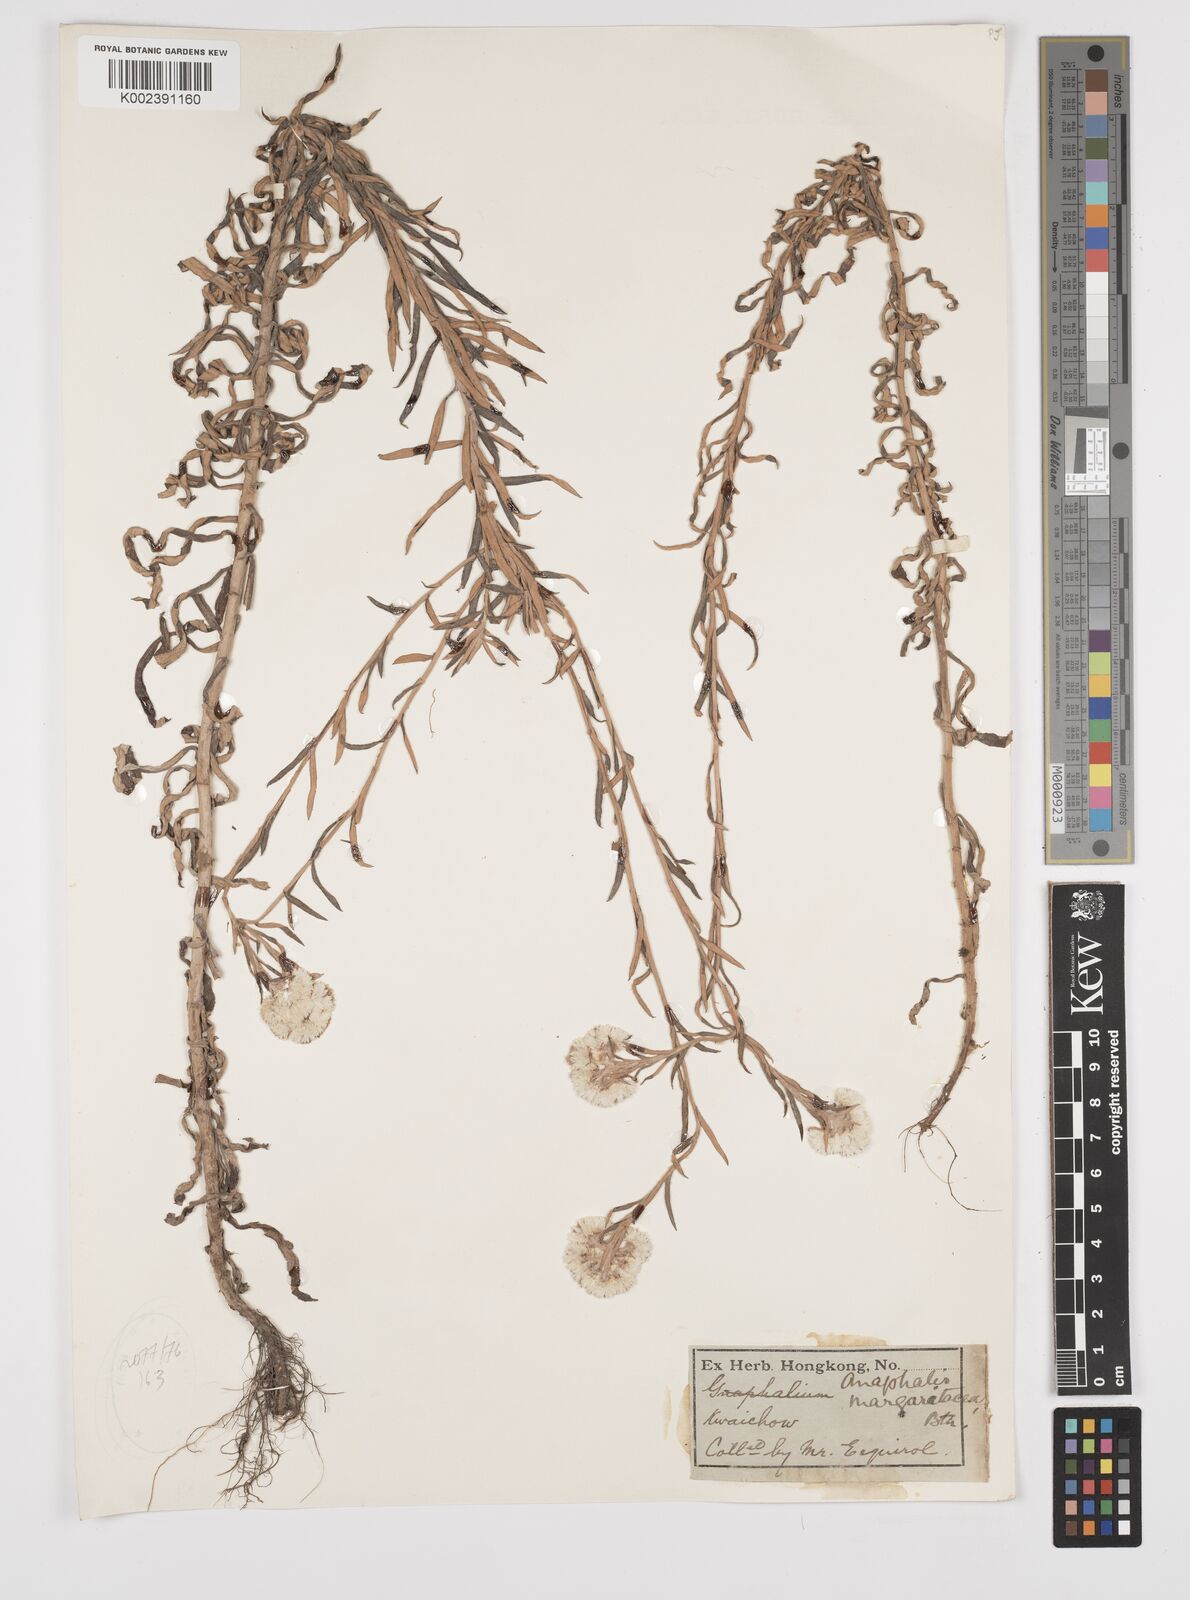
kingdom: Plantae
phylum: Tracheophyta
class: Magnoliopsida
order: Asterales
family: Asteraceae
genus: Anaphalis
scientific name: Anaphalis margaritacea
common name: Pearly everlasting
